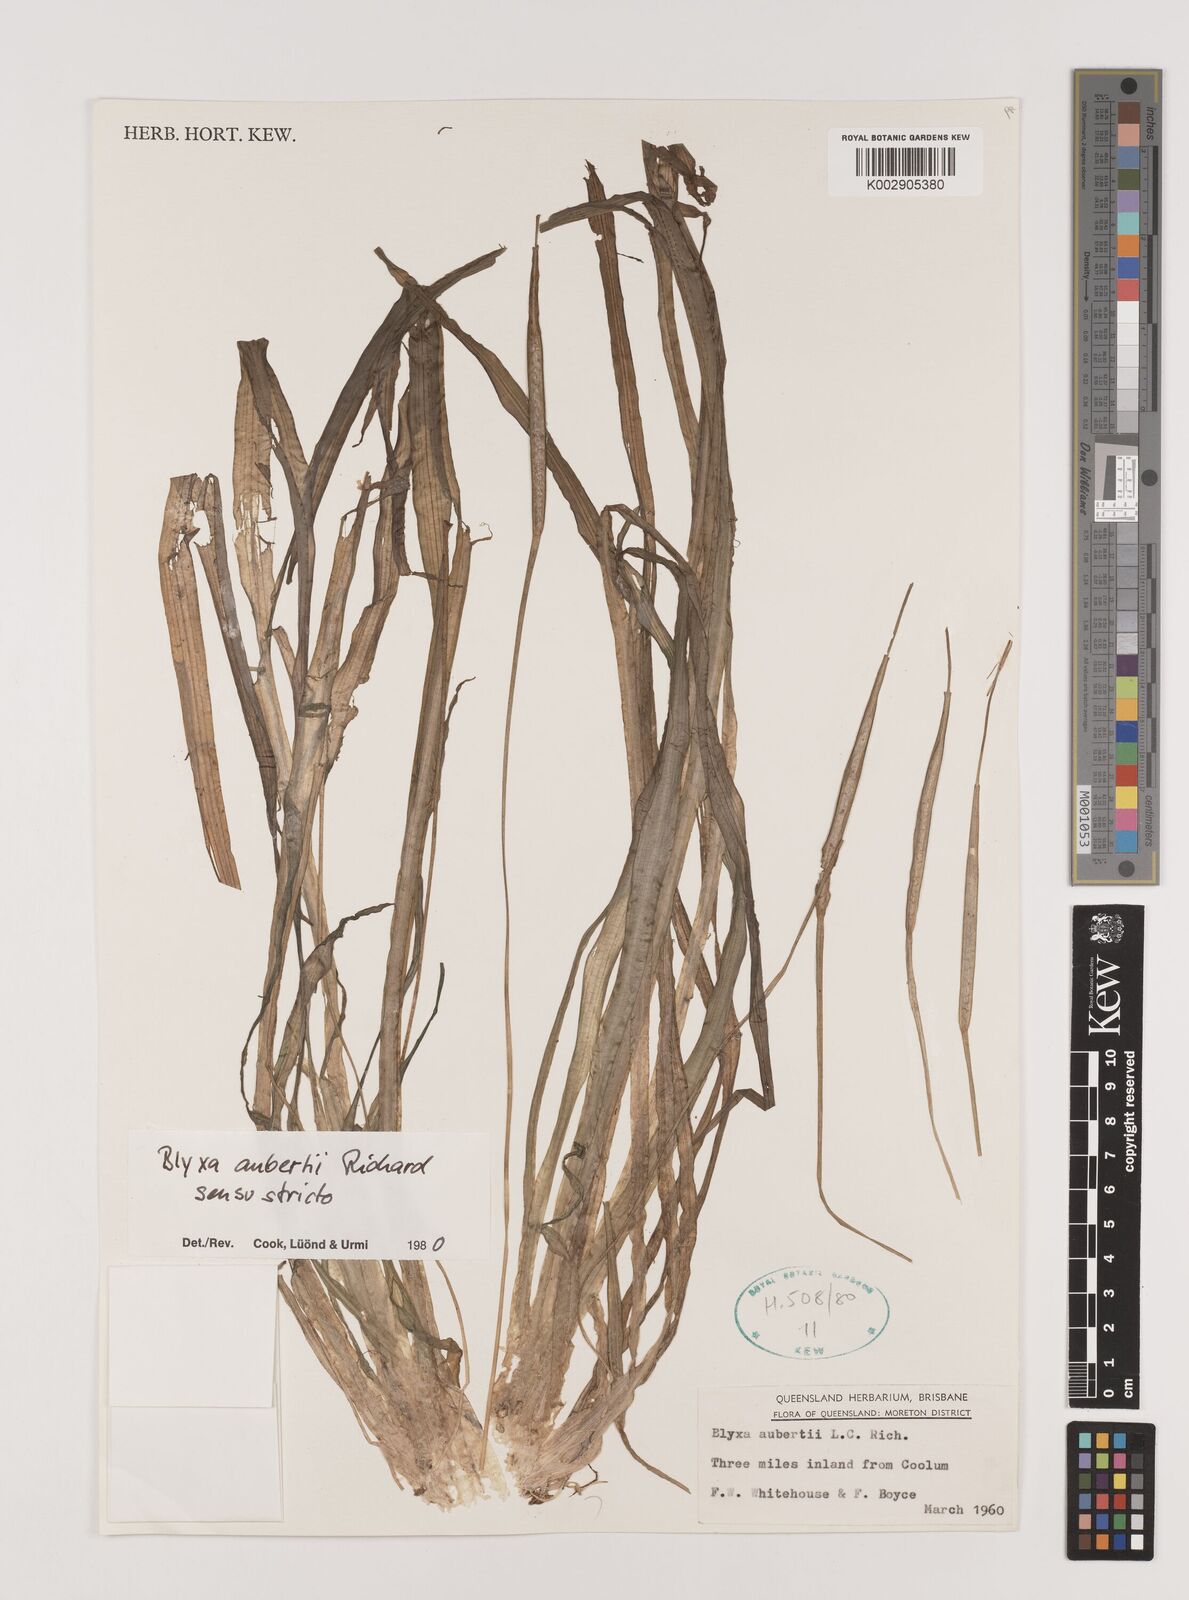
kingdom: Plantae
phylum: Tracheophyta
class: Liliopsida
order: Alismatales
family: Hydrocharitaceae
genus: Blyxa
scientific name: Blyxa aubertii
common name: Roundfruit blyxa
